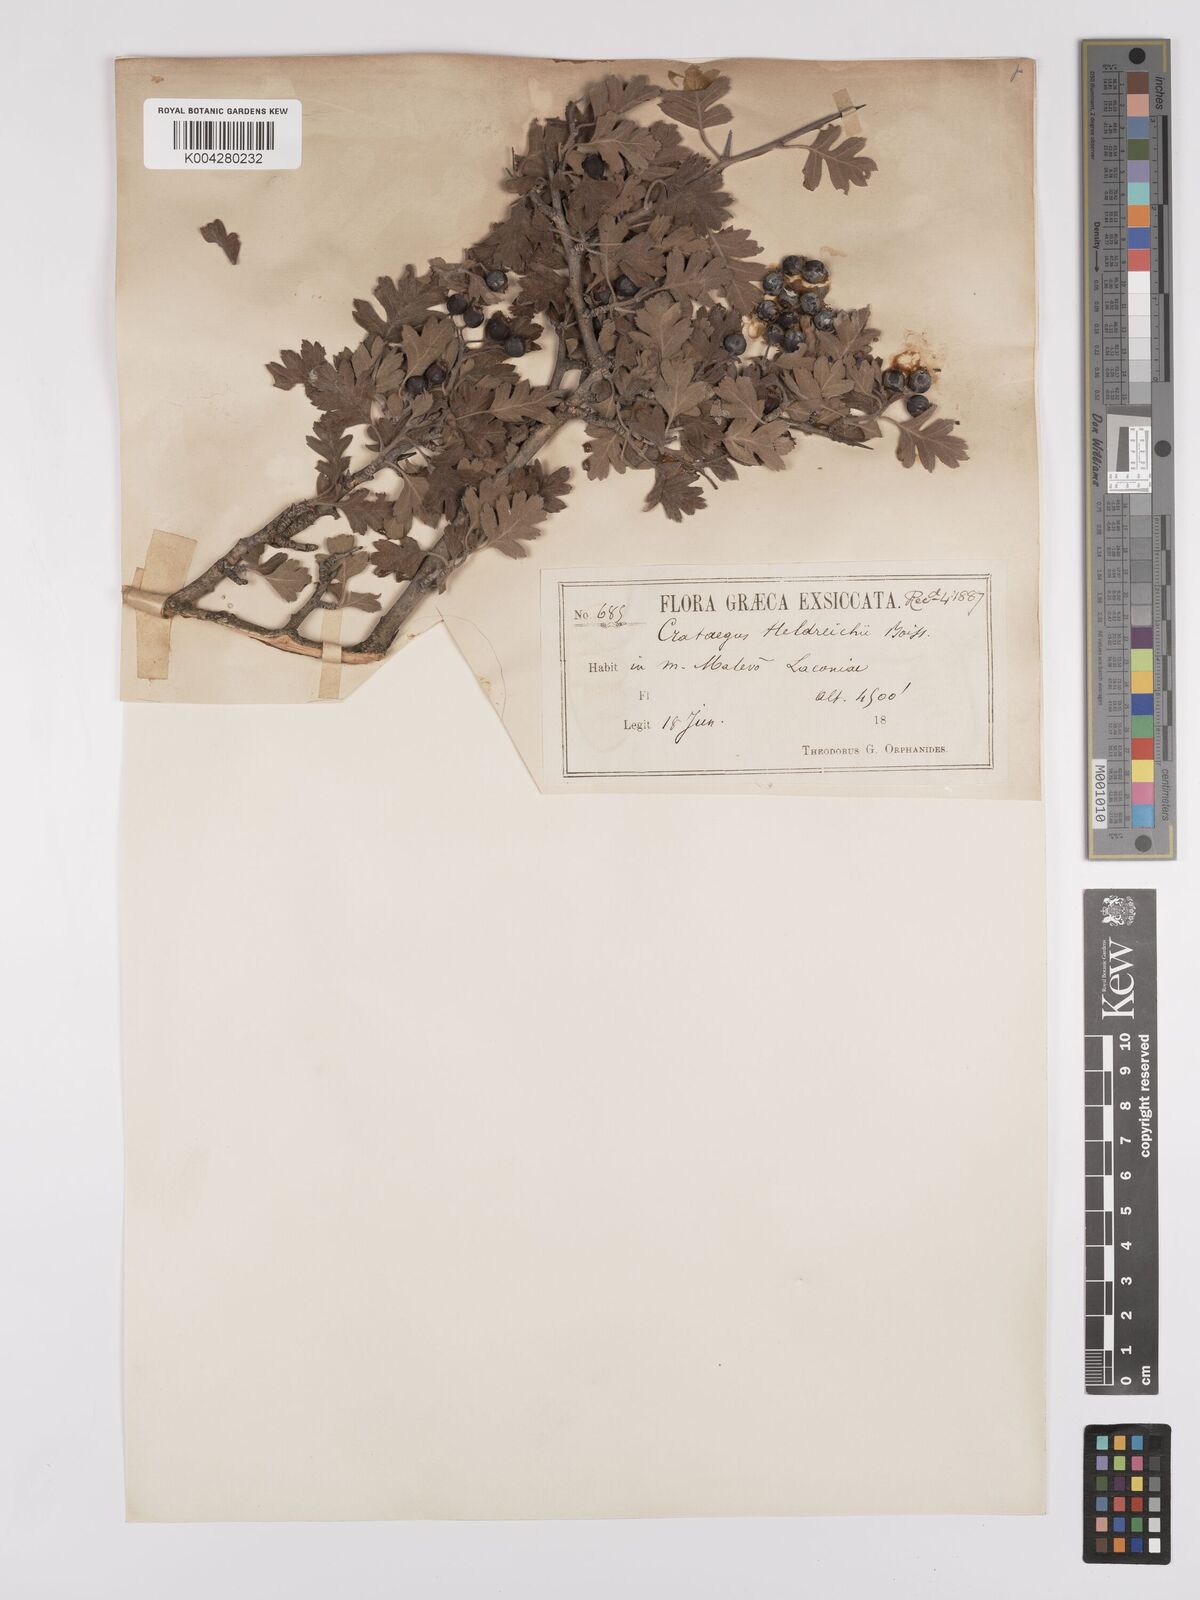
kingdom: Plantae
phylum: Tracheophyta
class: Magnoliopsida
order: Rosales
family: Rosaceae
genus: Crataegus
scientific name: Crataegus heldreichii
